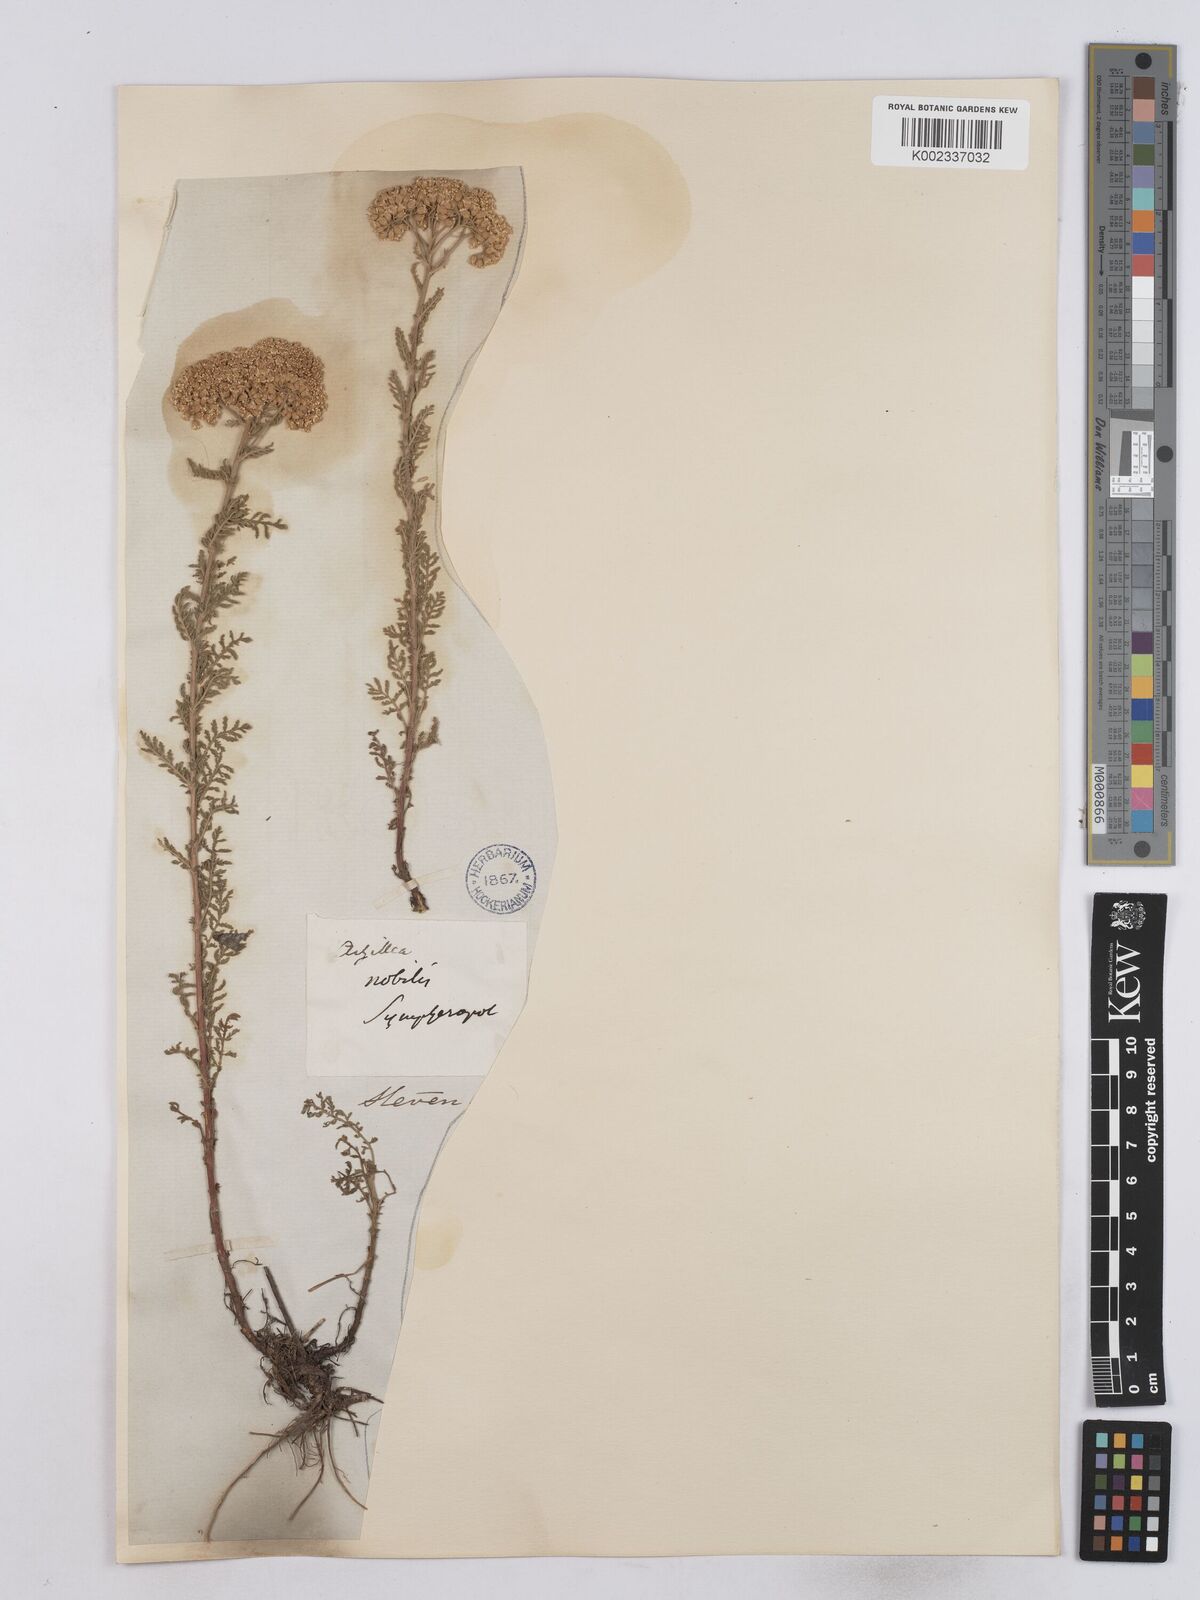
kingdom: Plantae
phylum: Tracheophyta
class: Magnoliopsida
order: Asterales
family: Asteraceae
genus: Achillea
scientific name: Achillea nobilis
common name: Noble yarrow
